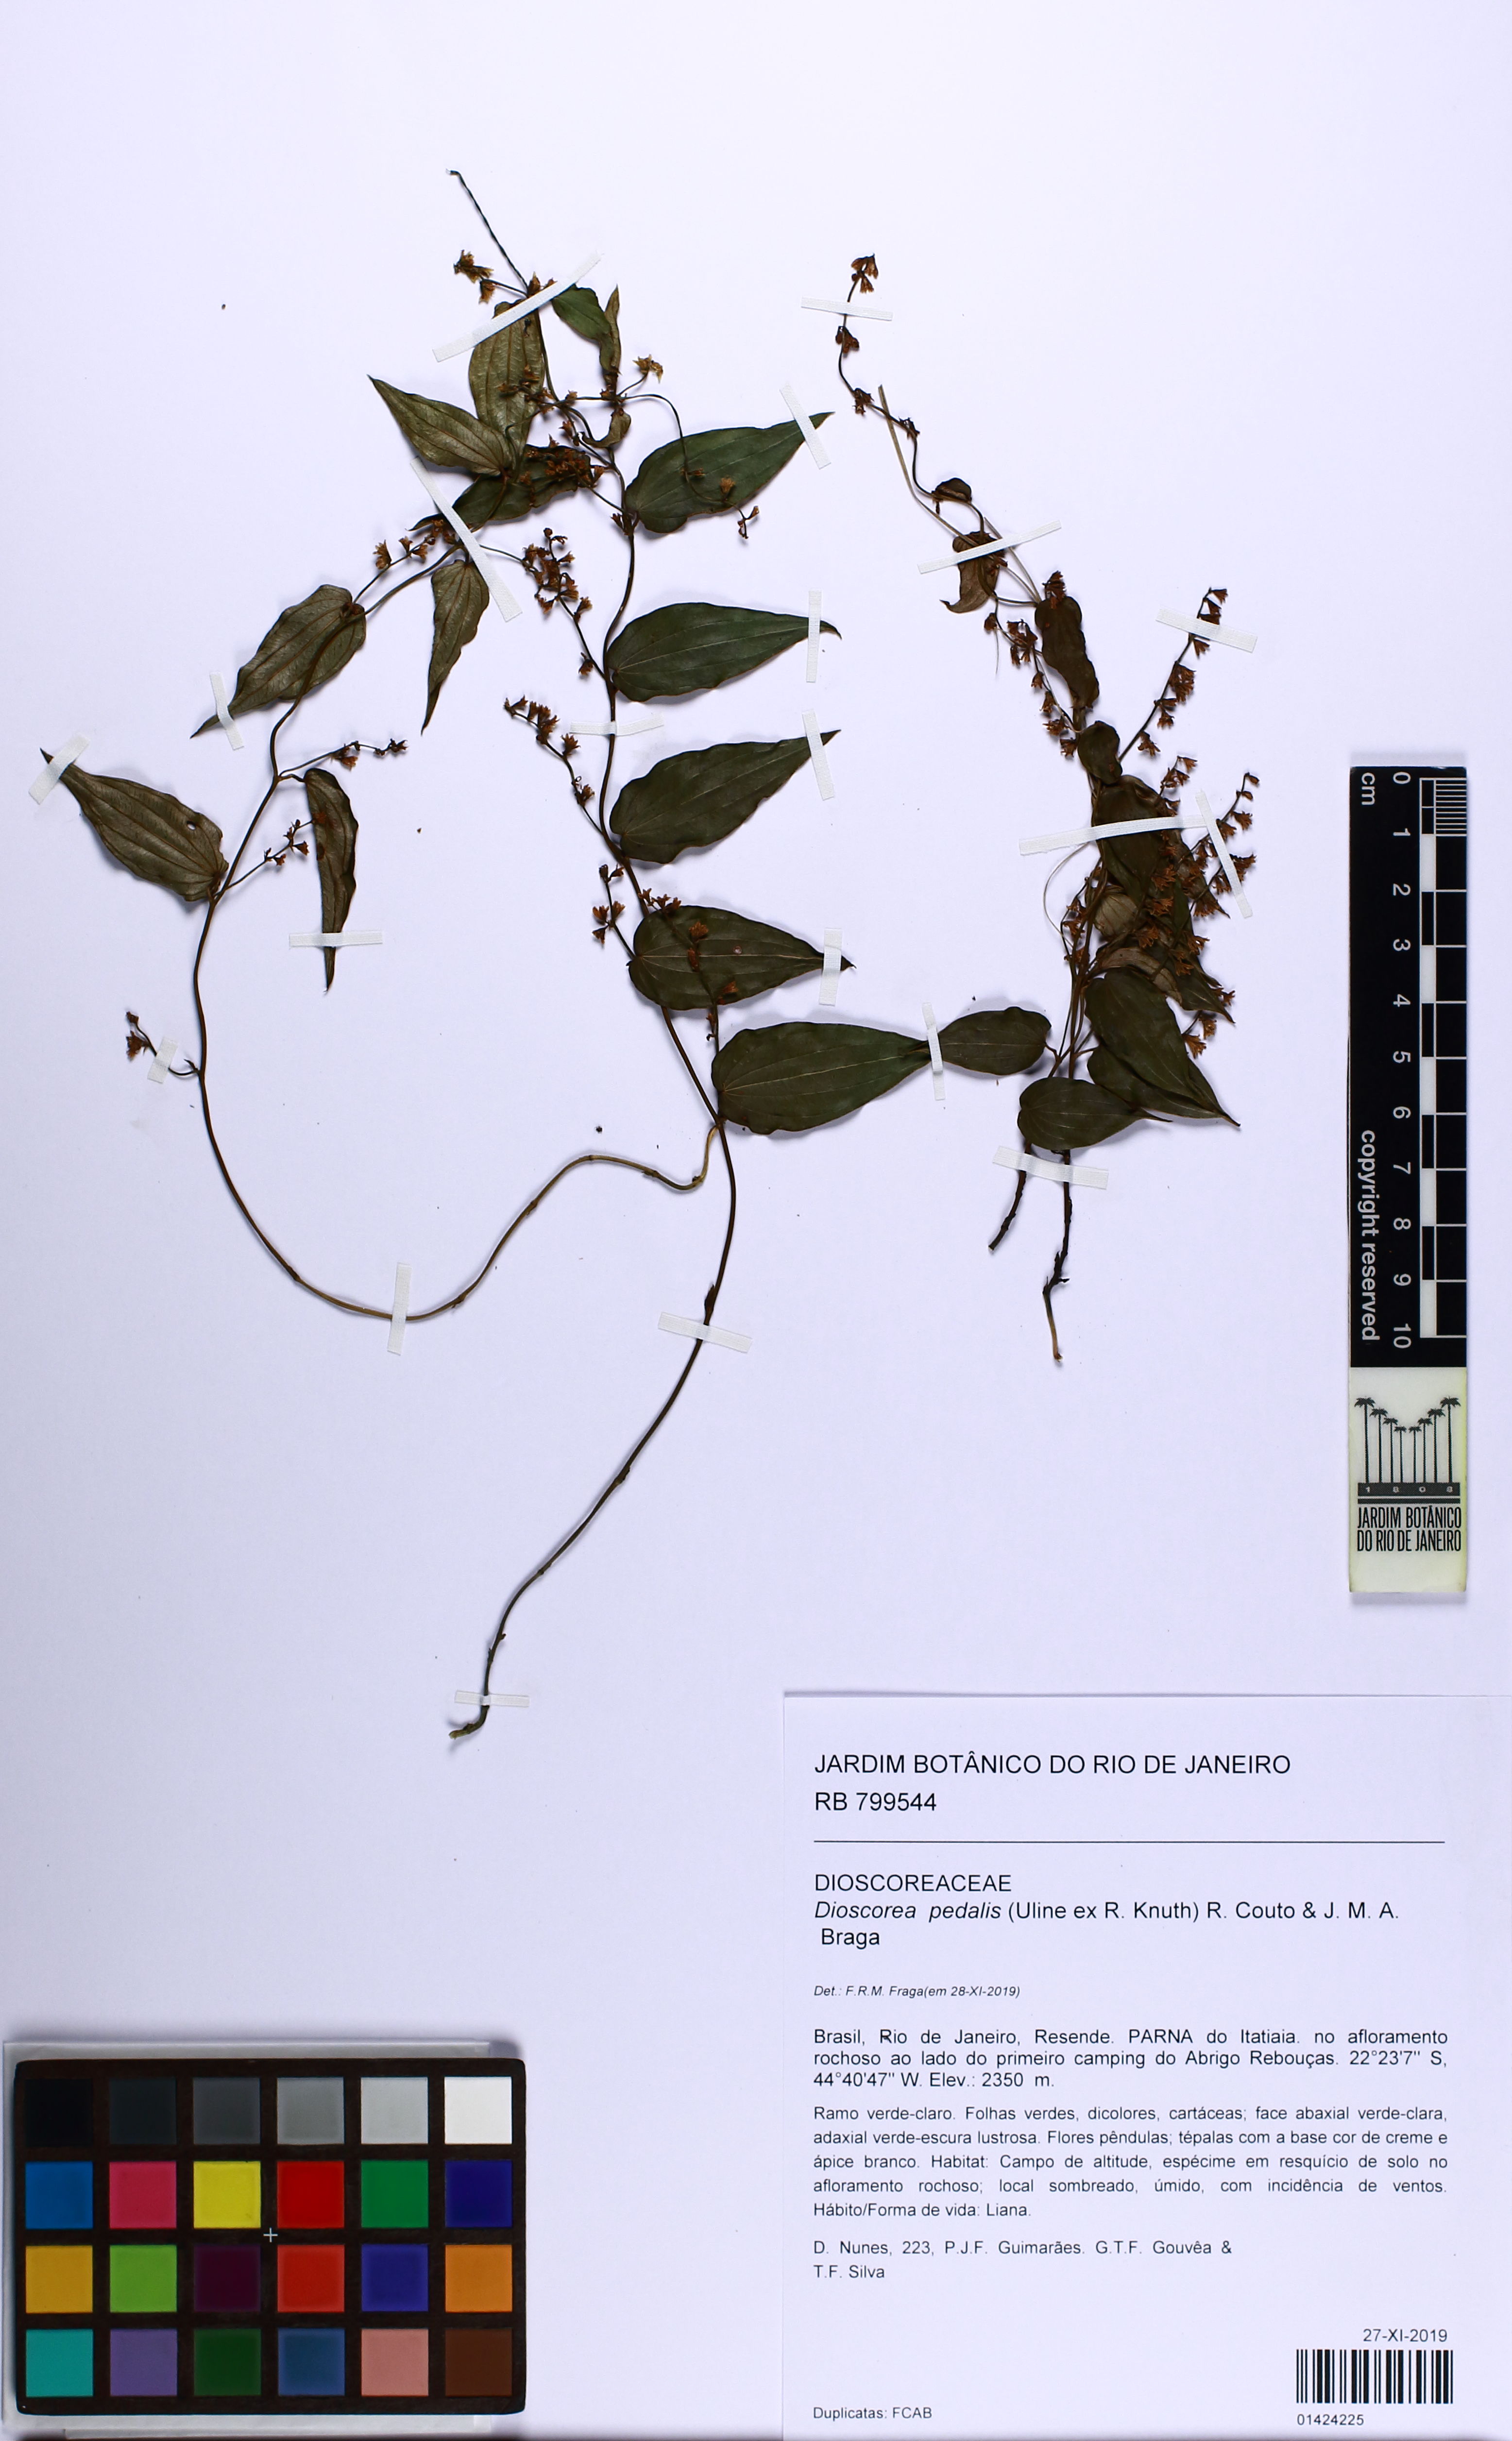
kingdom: Plantae
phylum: Tracheophyta
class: Liliopsida
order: Dioscoreales
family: Dioscoreaceae
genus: Dioscorea
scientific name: Dioscorea pedalis
